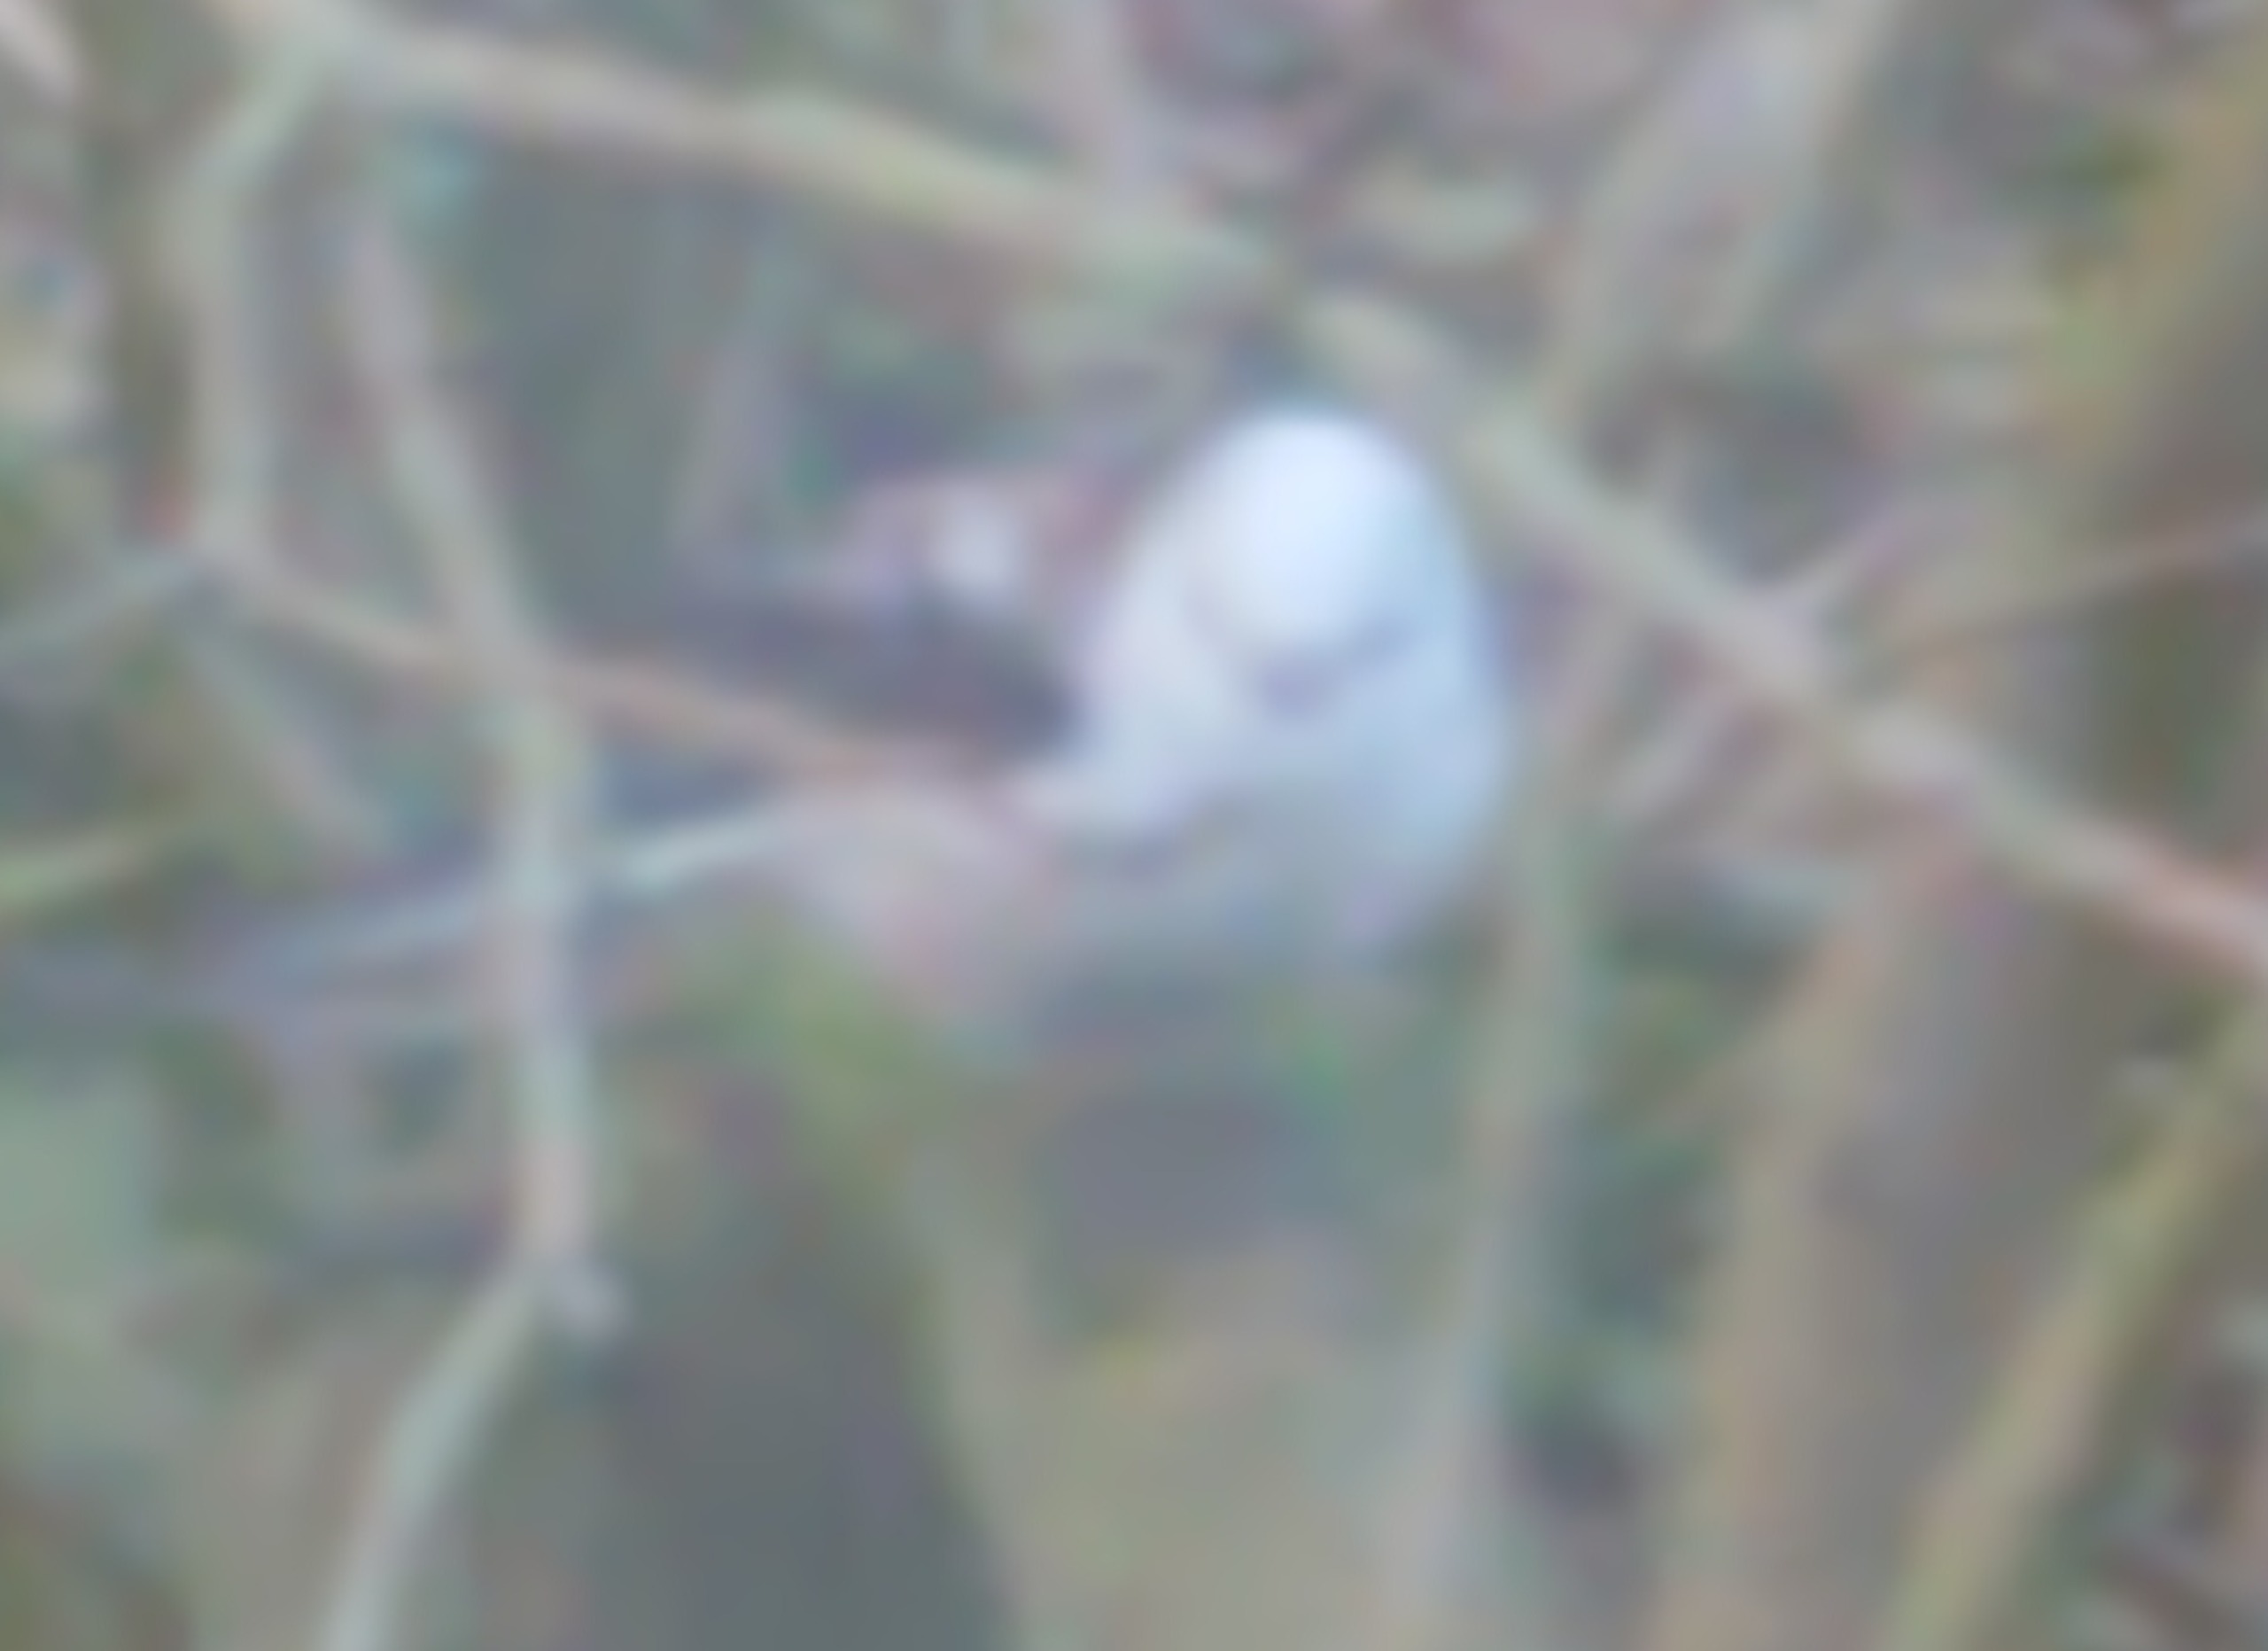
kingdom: Animalia
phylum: Chordata
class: Aves
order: Passeriformes
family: Aegithalidae
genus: Aegithalos
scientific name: Aegithalos caudatus
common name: Halemejse
